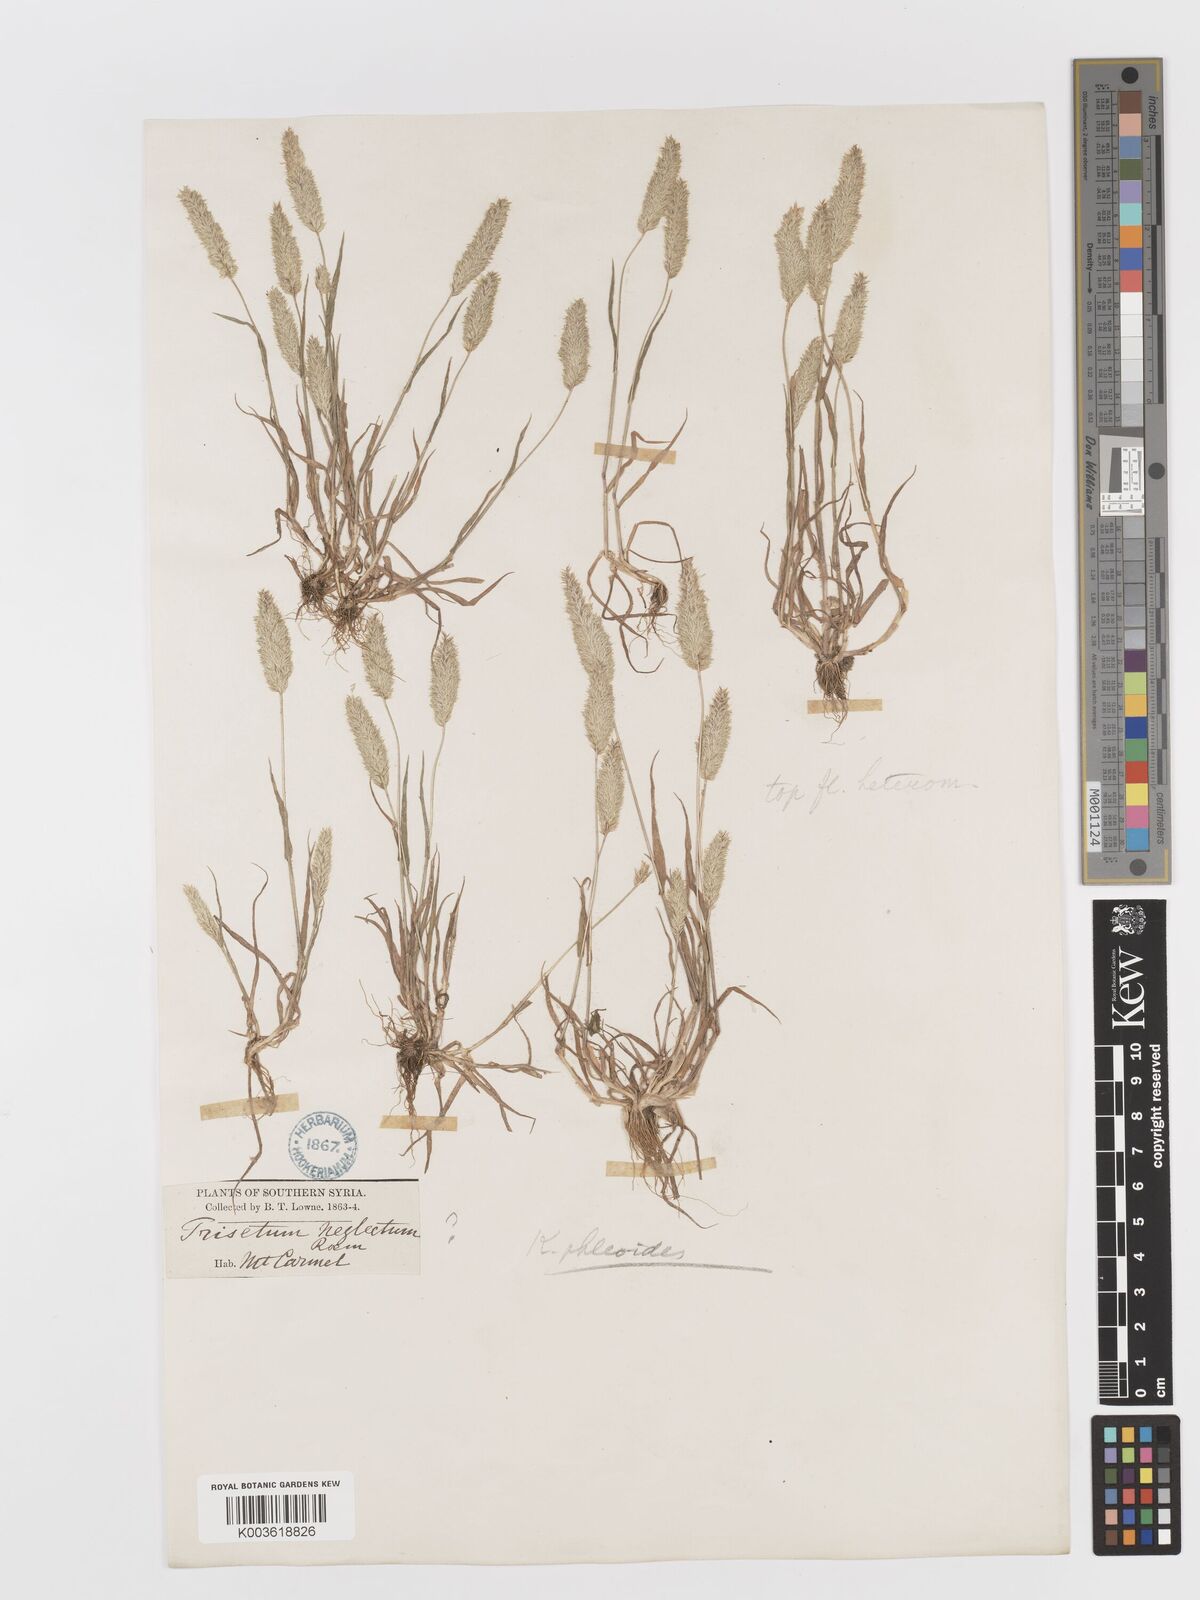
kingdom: Plantae
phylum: Tracheophyta
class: Liliopsida
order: Poales
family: Poaceae
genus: Rostraria
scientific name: Rostraria cristata
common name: Mediterranean hair-grass
